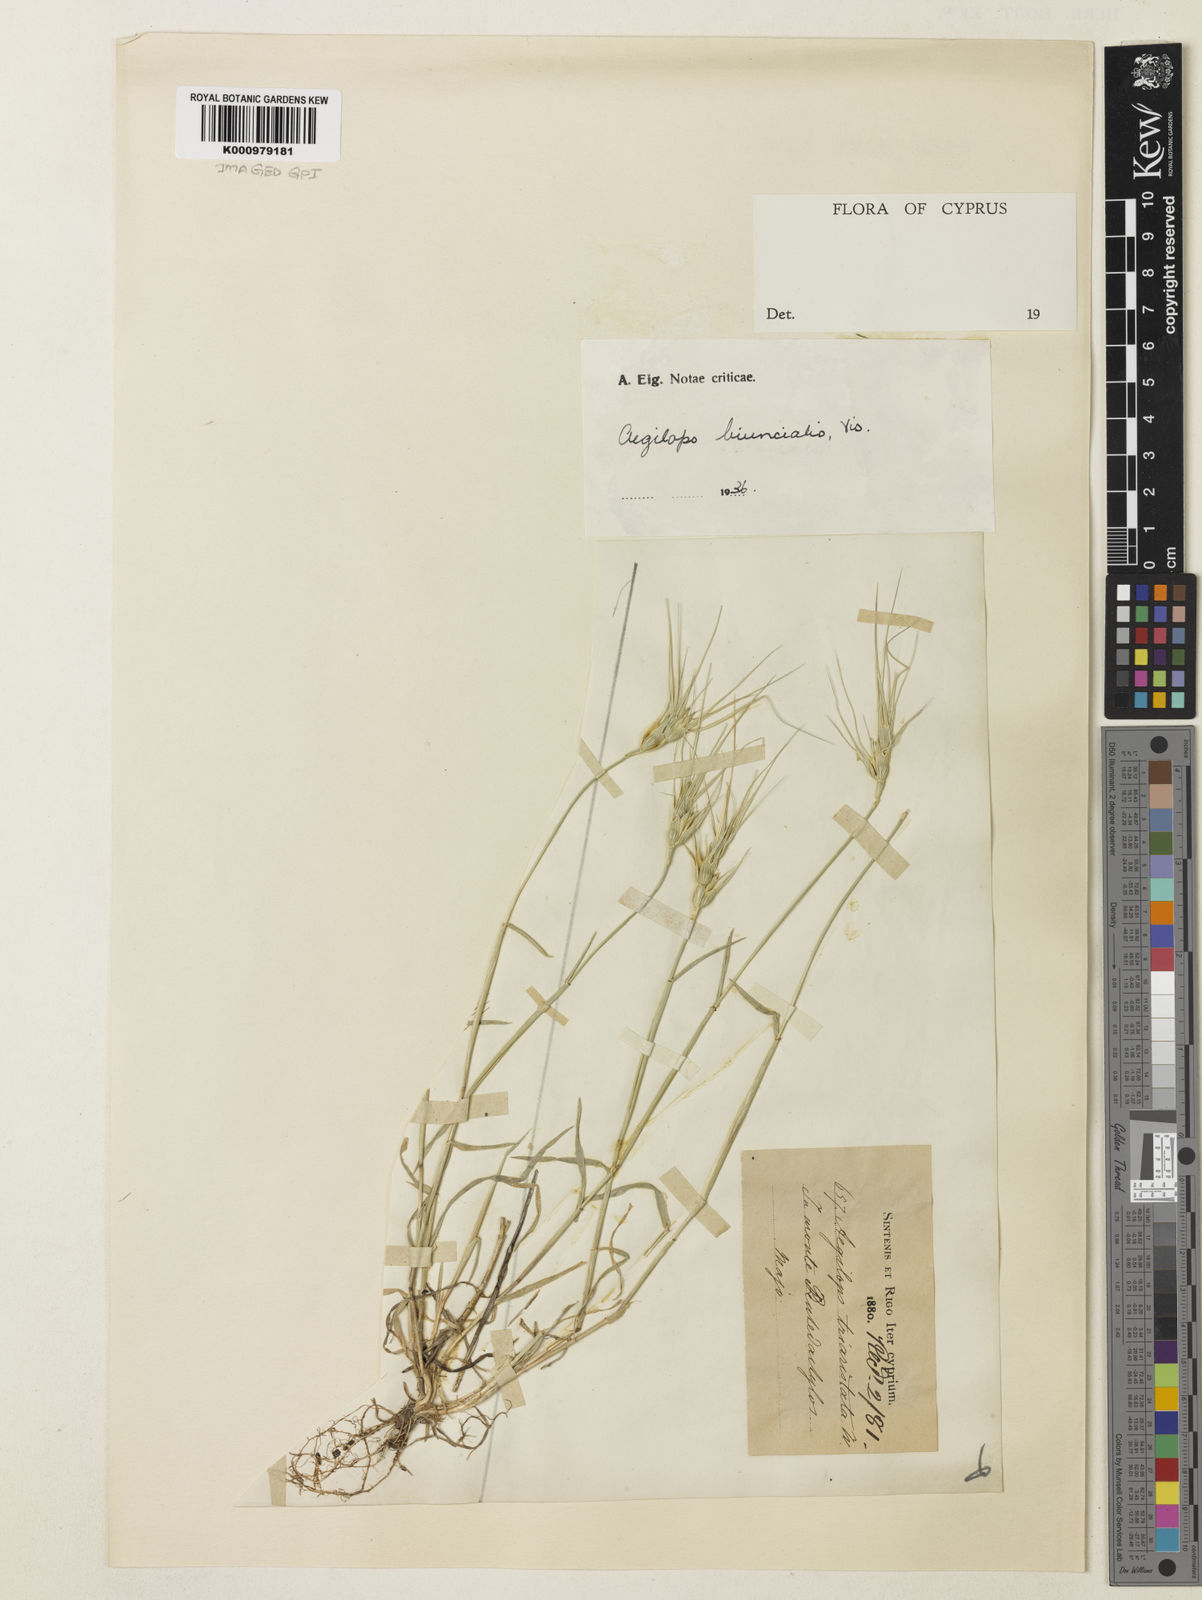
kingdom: Plantae
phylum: Tracheophyta
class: Liliopsida
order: Poales
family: Poaceae
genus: Aegilops
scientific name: Aegilops biuncialis
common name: Mediterranean aegilops
